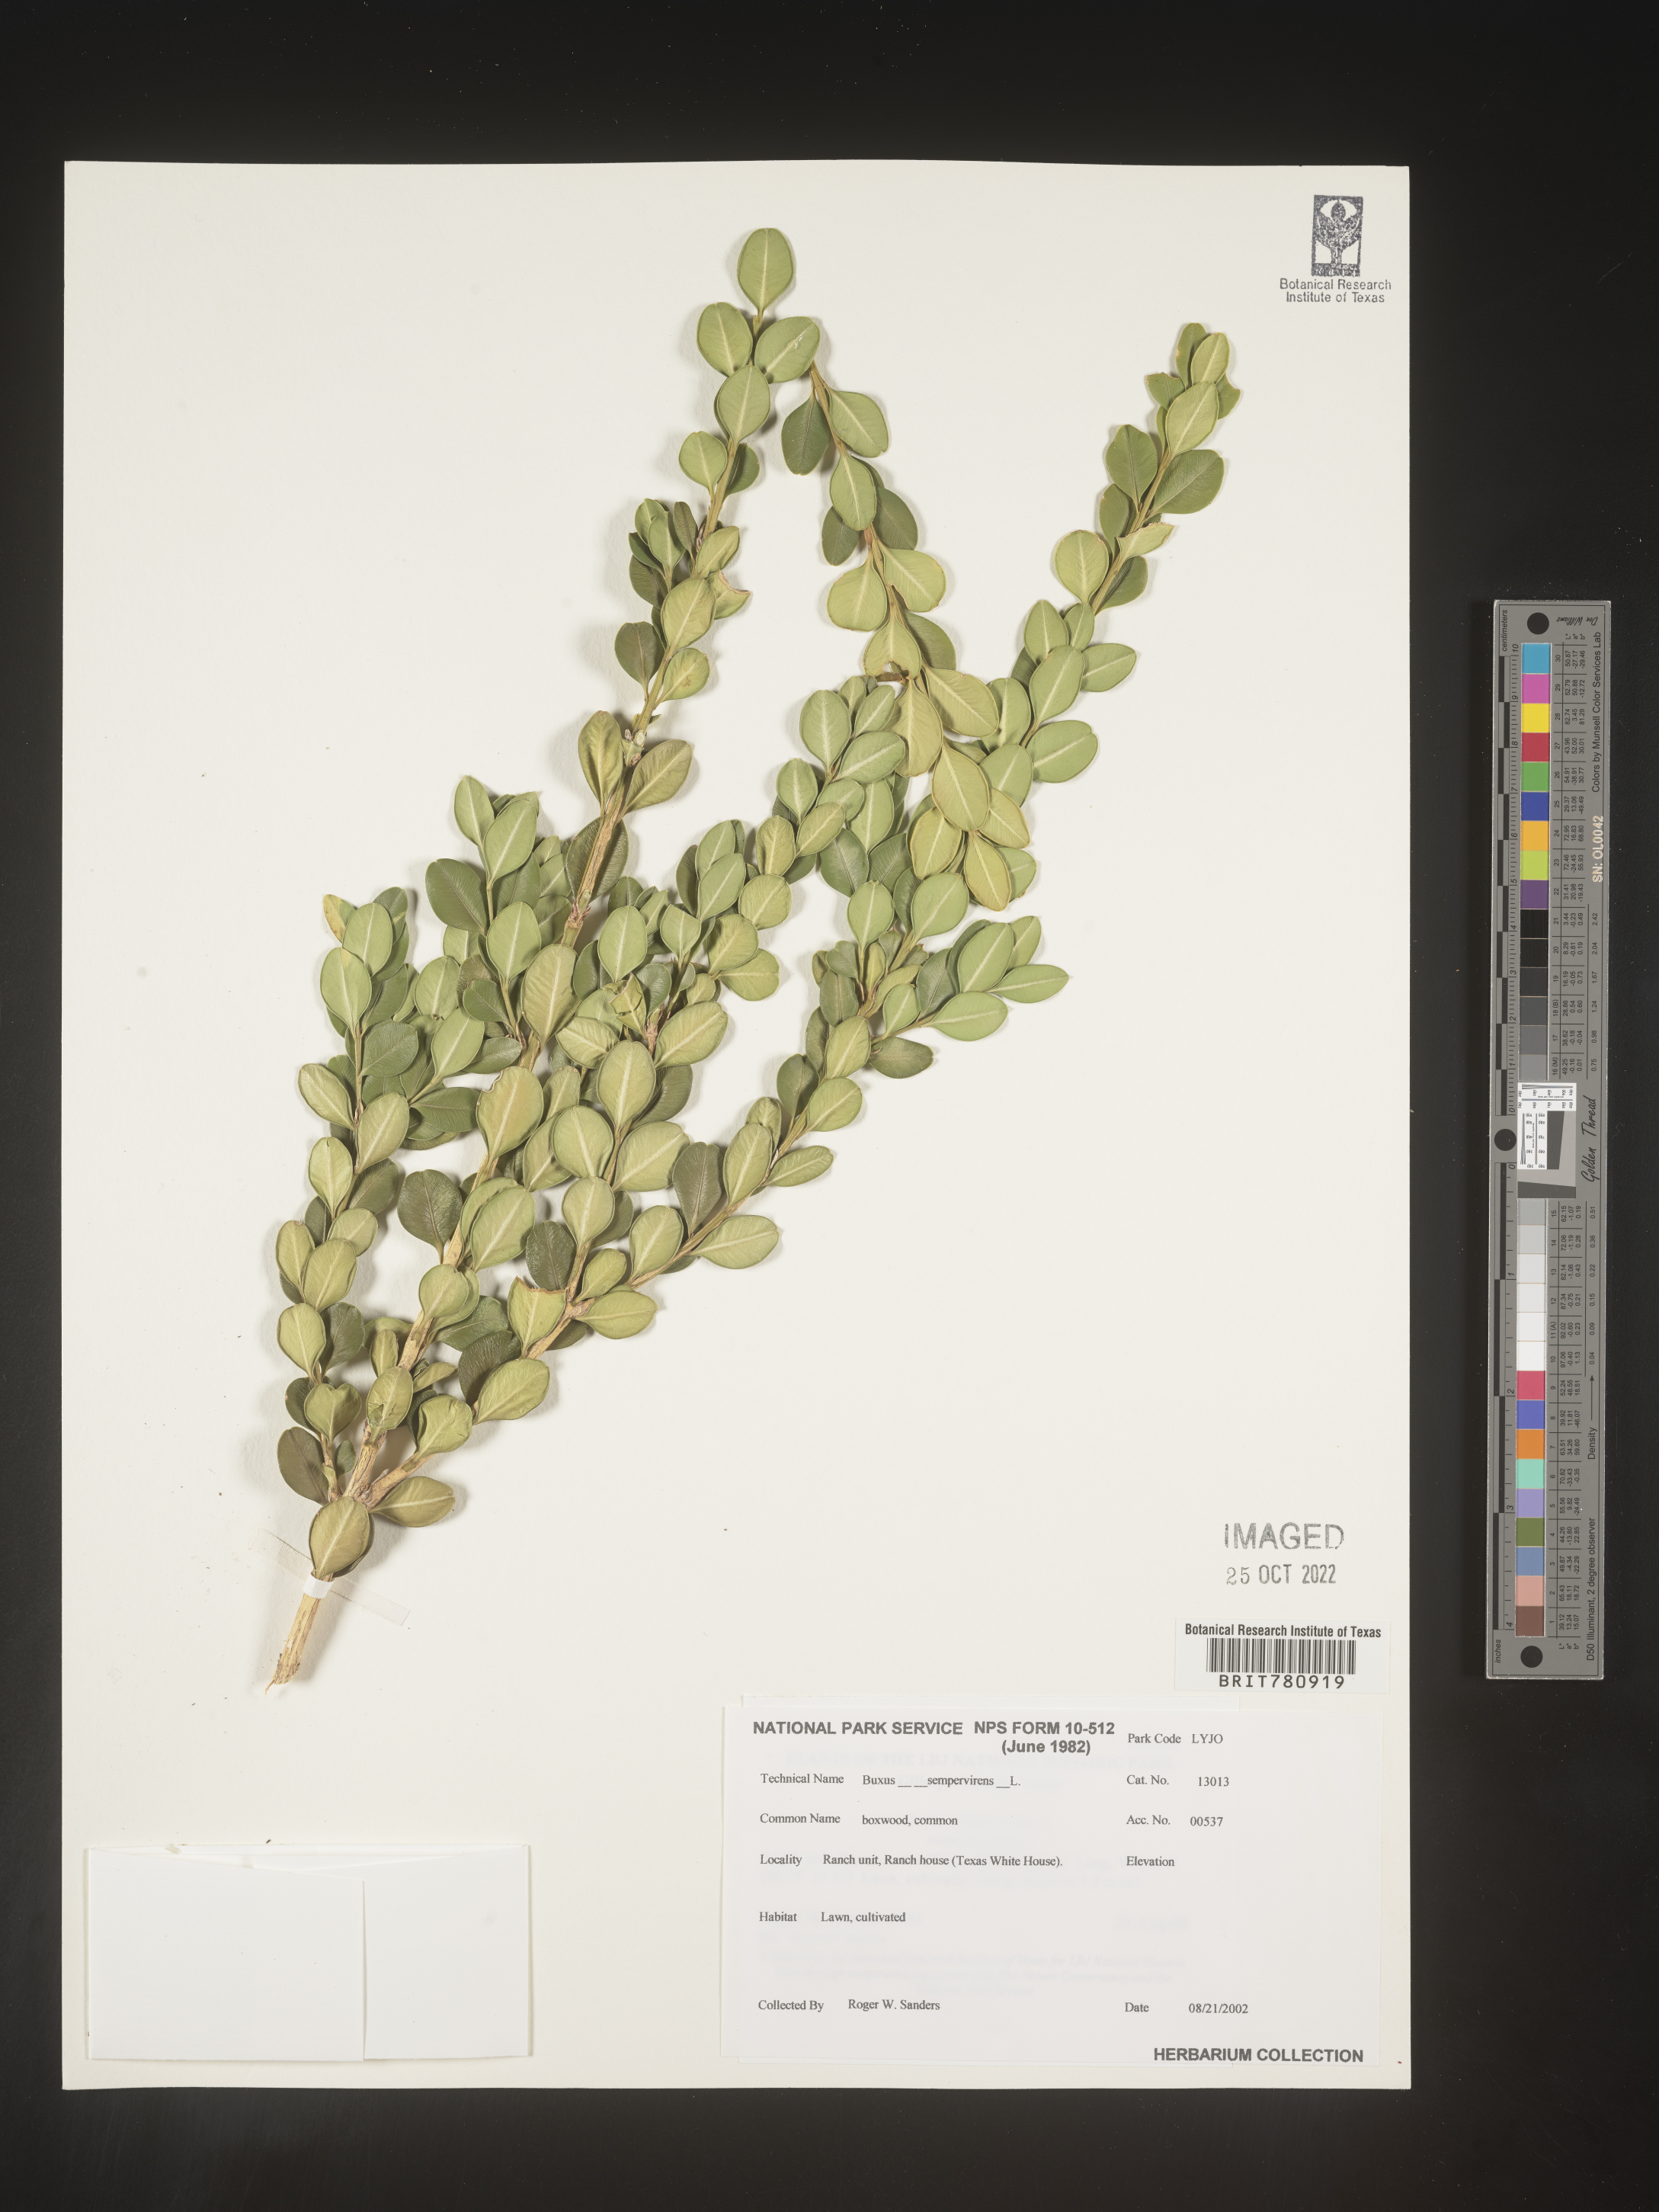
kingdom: Plantae
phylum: Tracheophyta
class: Magnoliopsida
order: Buxales
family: Buxaceae
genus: Buxus
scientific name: Buxus
